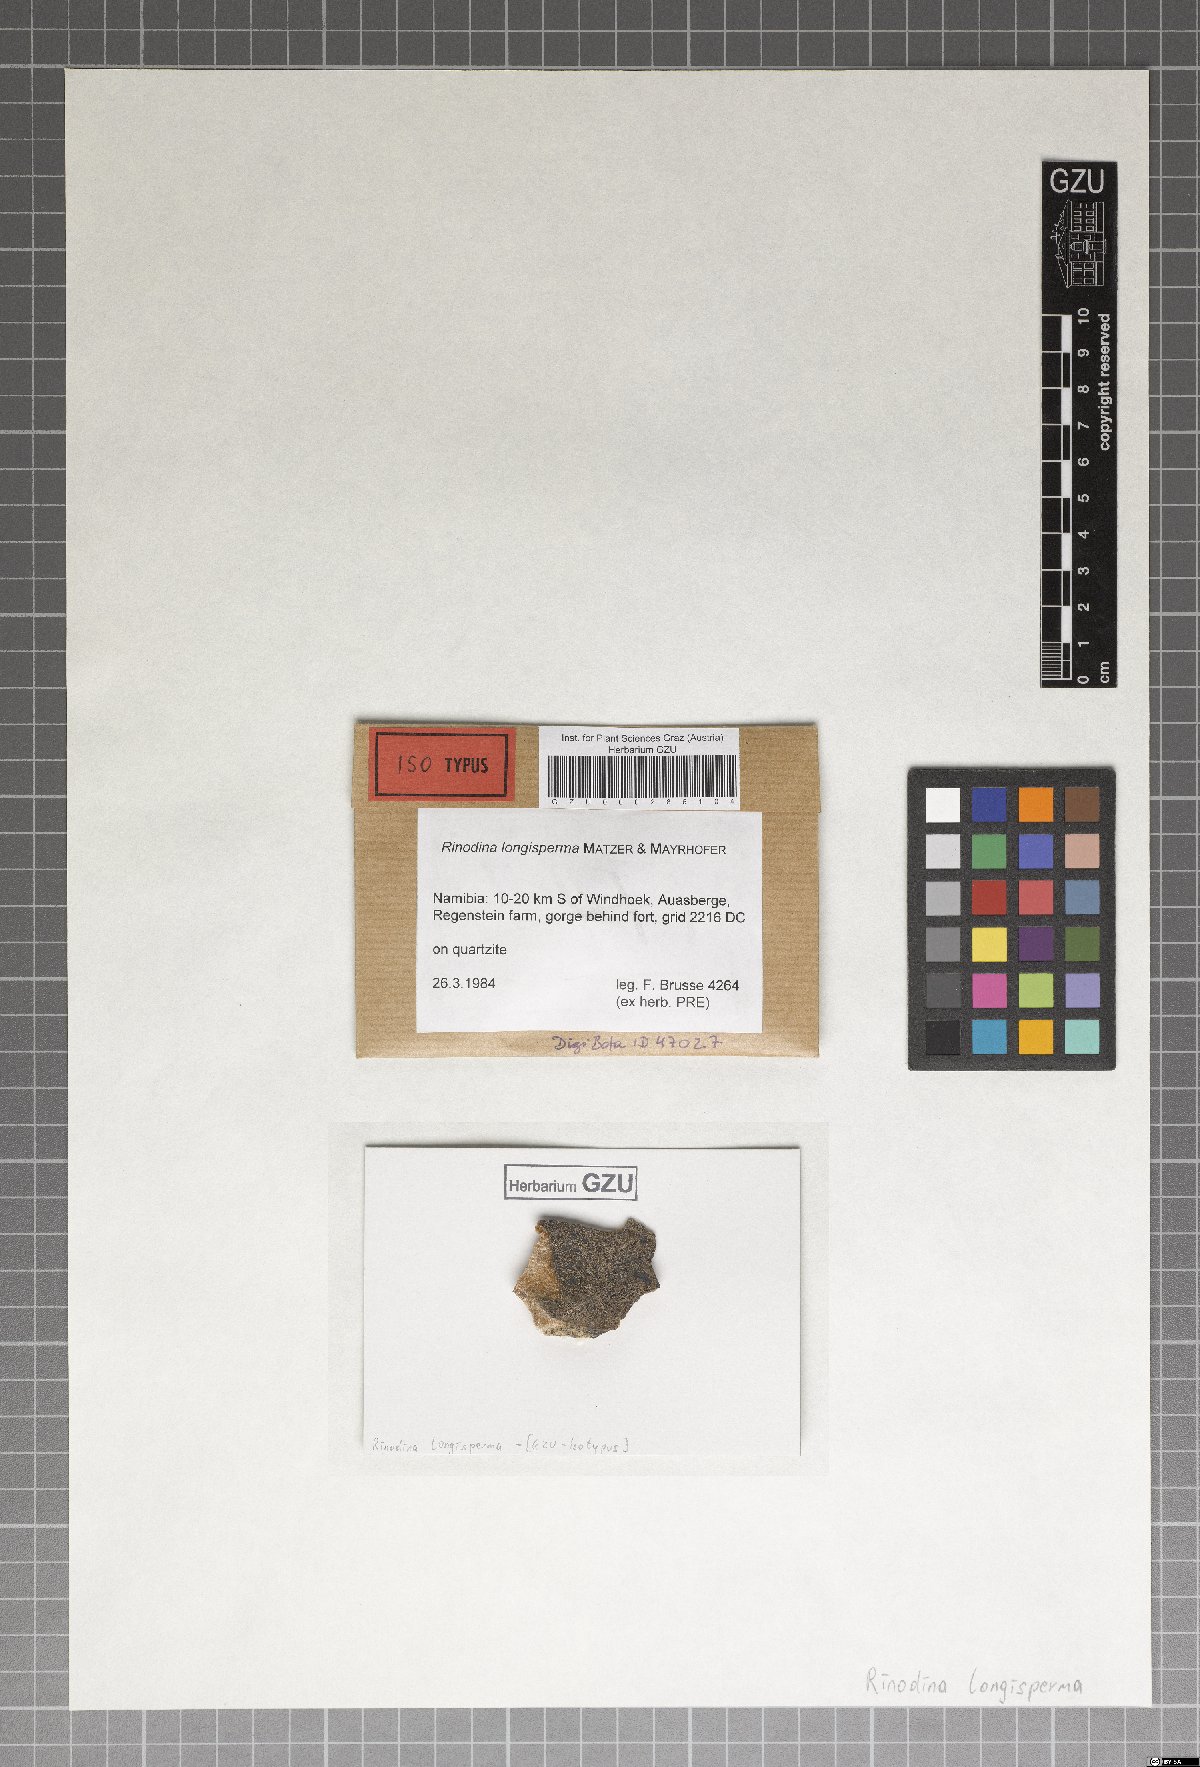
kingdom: Fungi
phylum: Ascomycota
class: Lecanoromycetes
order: Caliciales
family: Physciaceae
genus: Rinodina
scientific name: Rinodina
